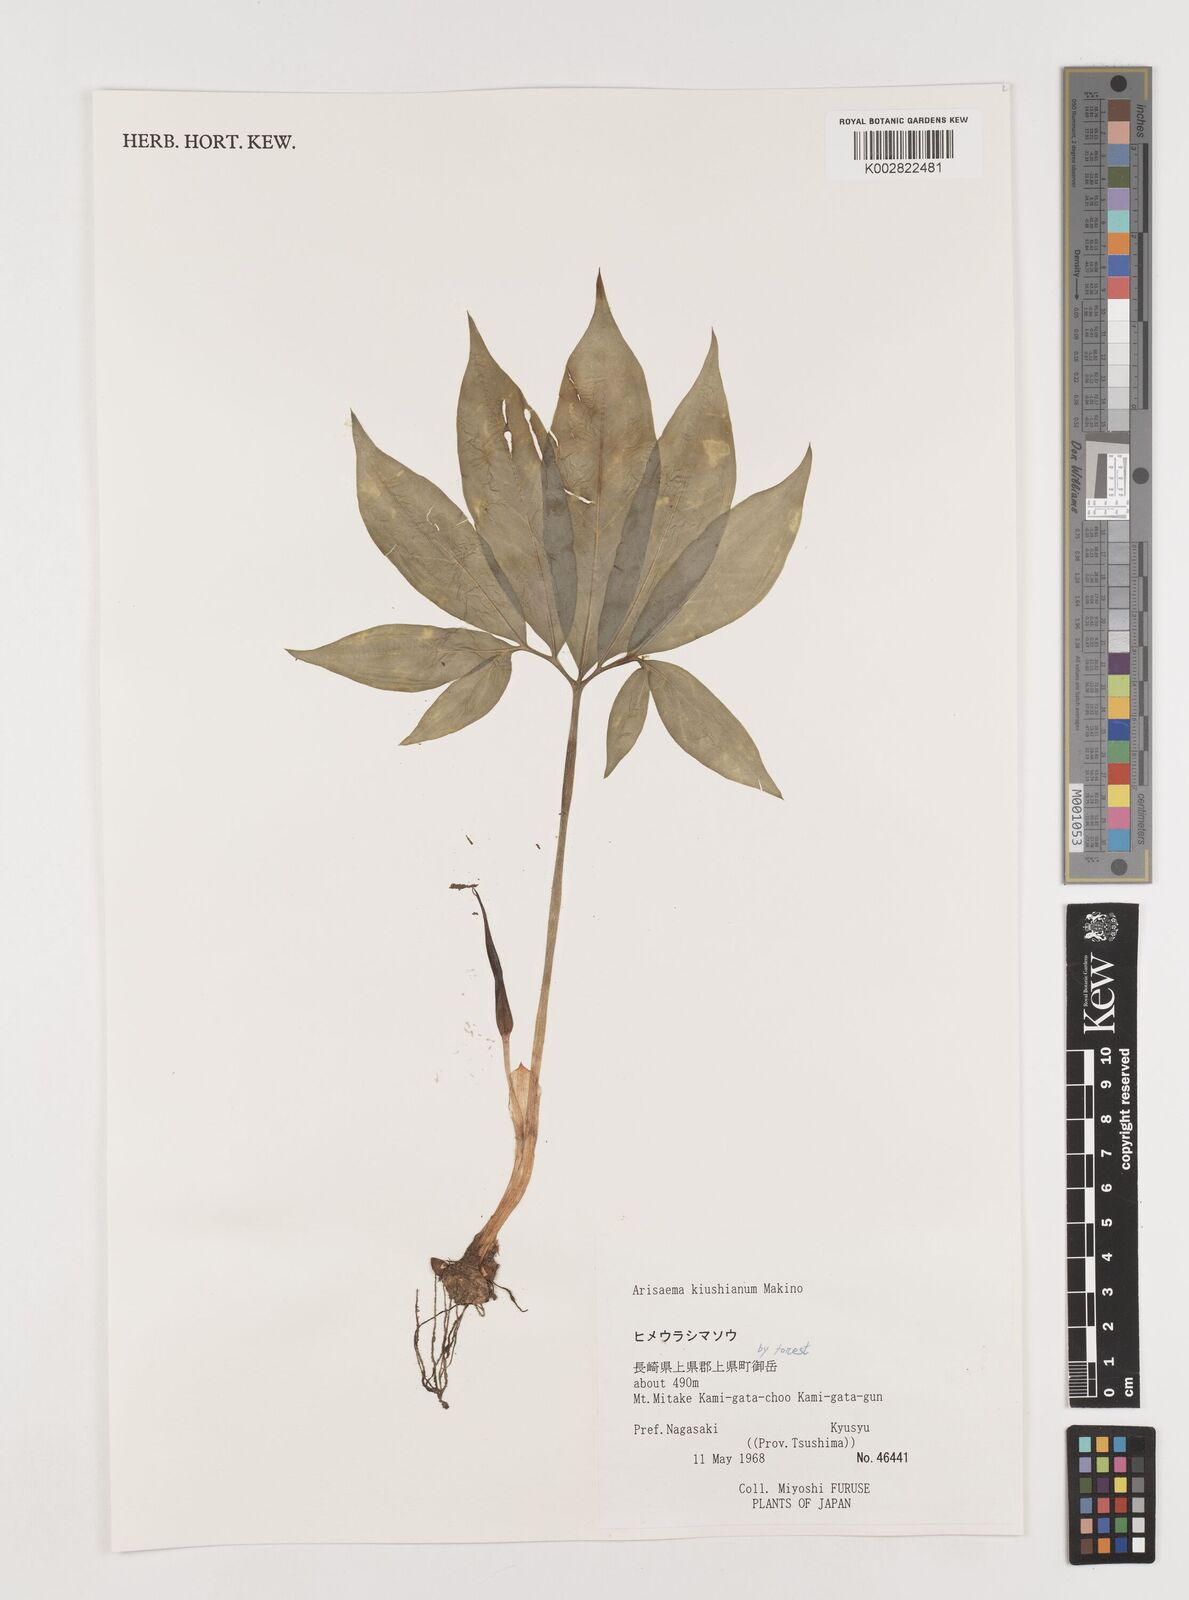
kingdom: Plantae
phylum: Tracheophyta
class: Liliopsida
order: Alismatales
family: Araceae
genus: Arisaema
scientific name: Arisaema kiushianum
